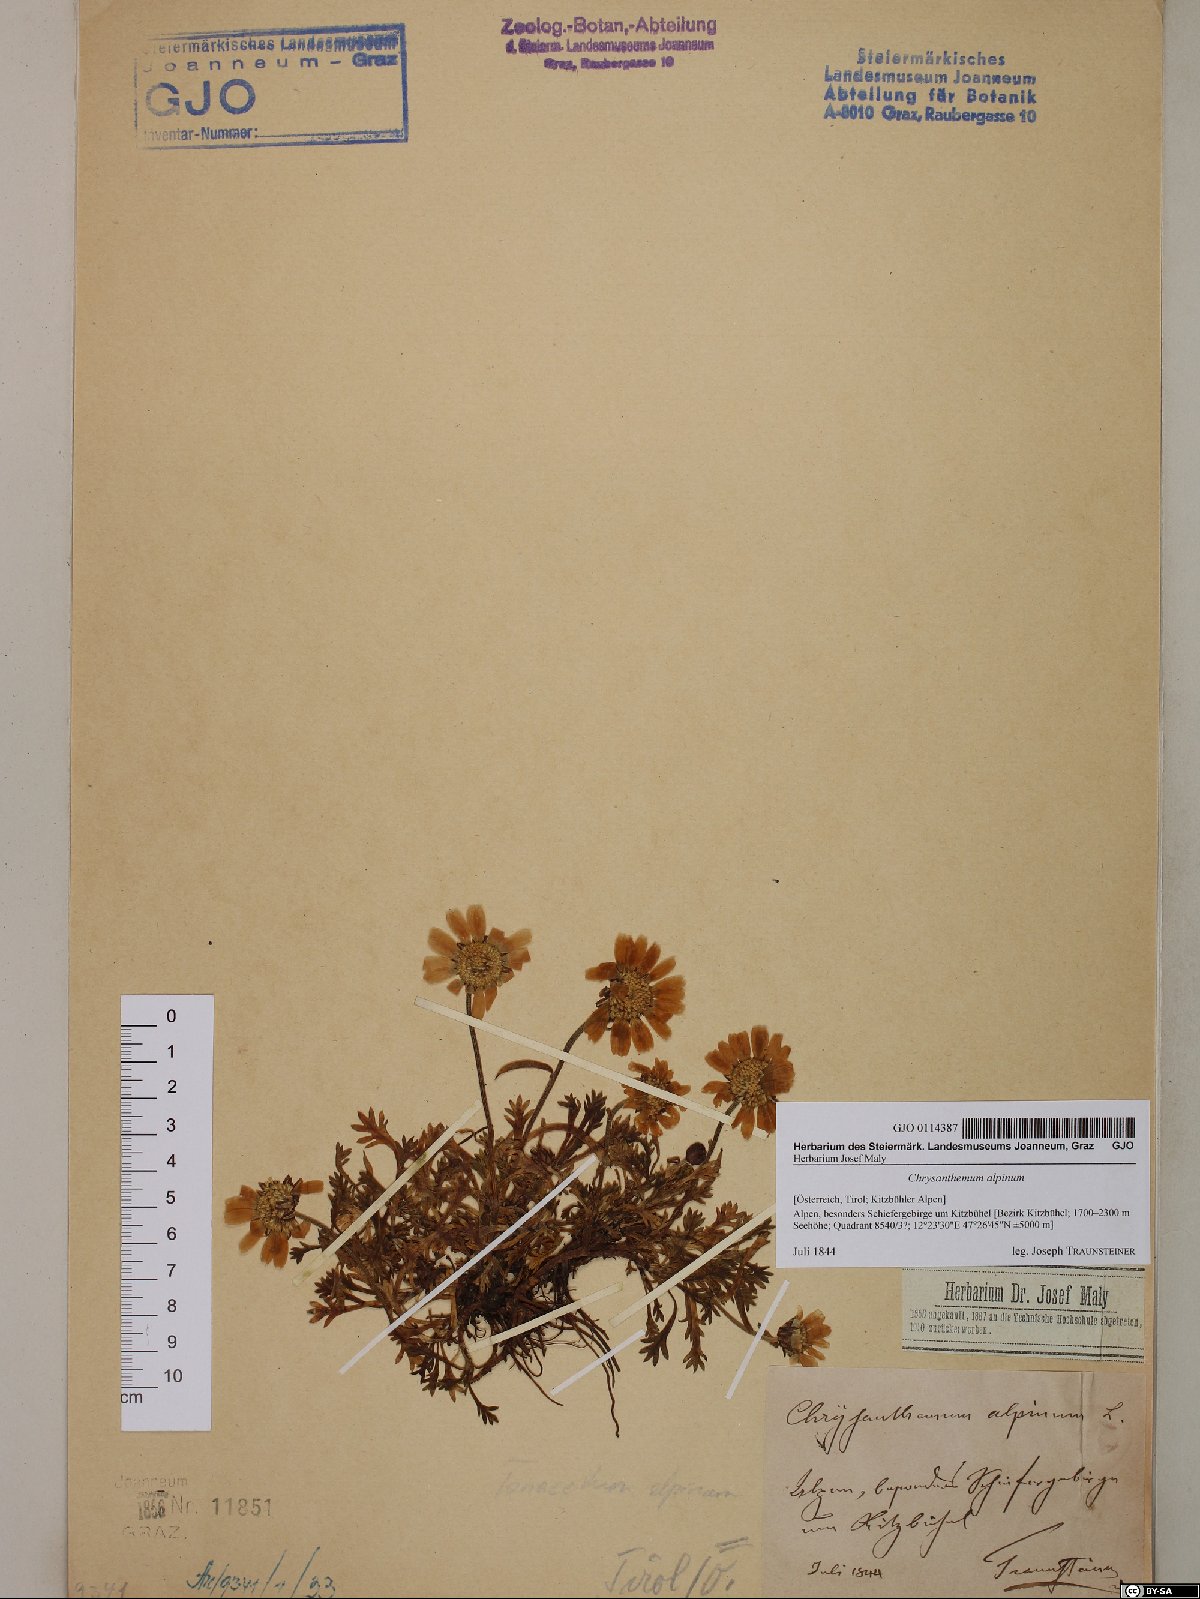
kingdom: Plantae
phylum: Tracheophyta
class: Magnoliopsida
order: Asterales
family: Asteraceae
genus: Leucanthemopsis
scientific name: Leucanthemopsis alpina
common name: Alpine moon daisy
